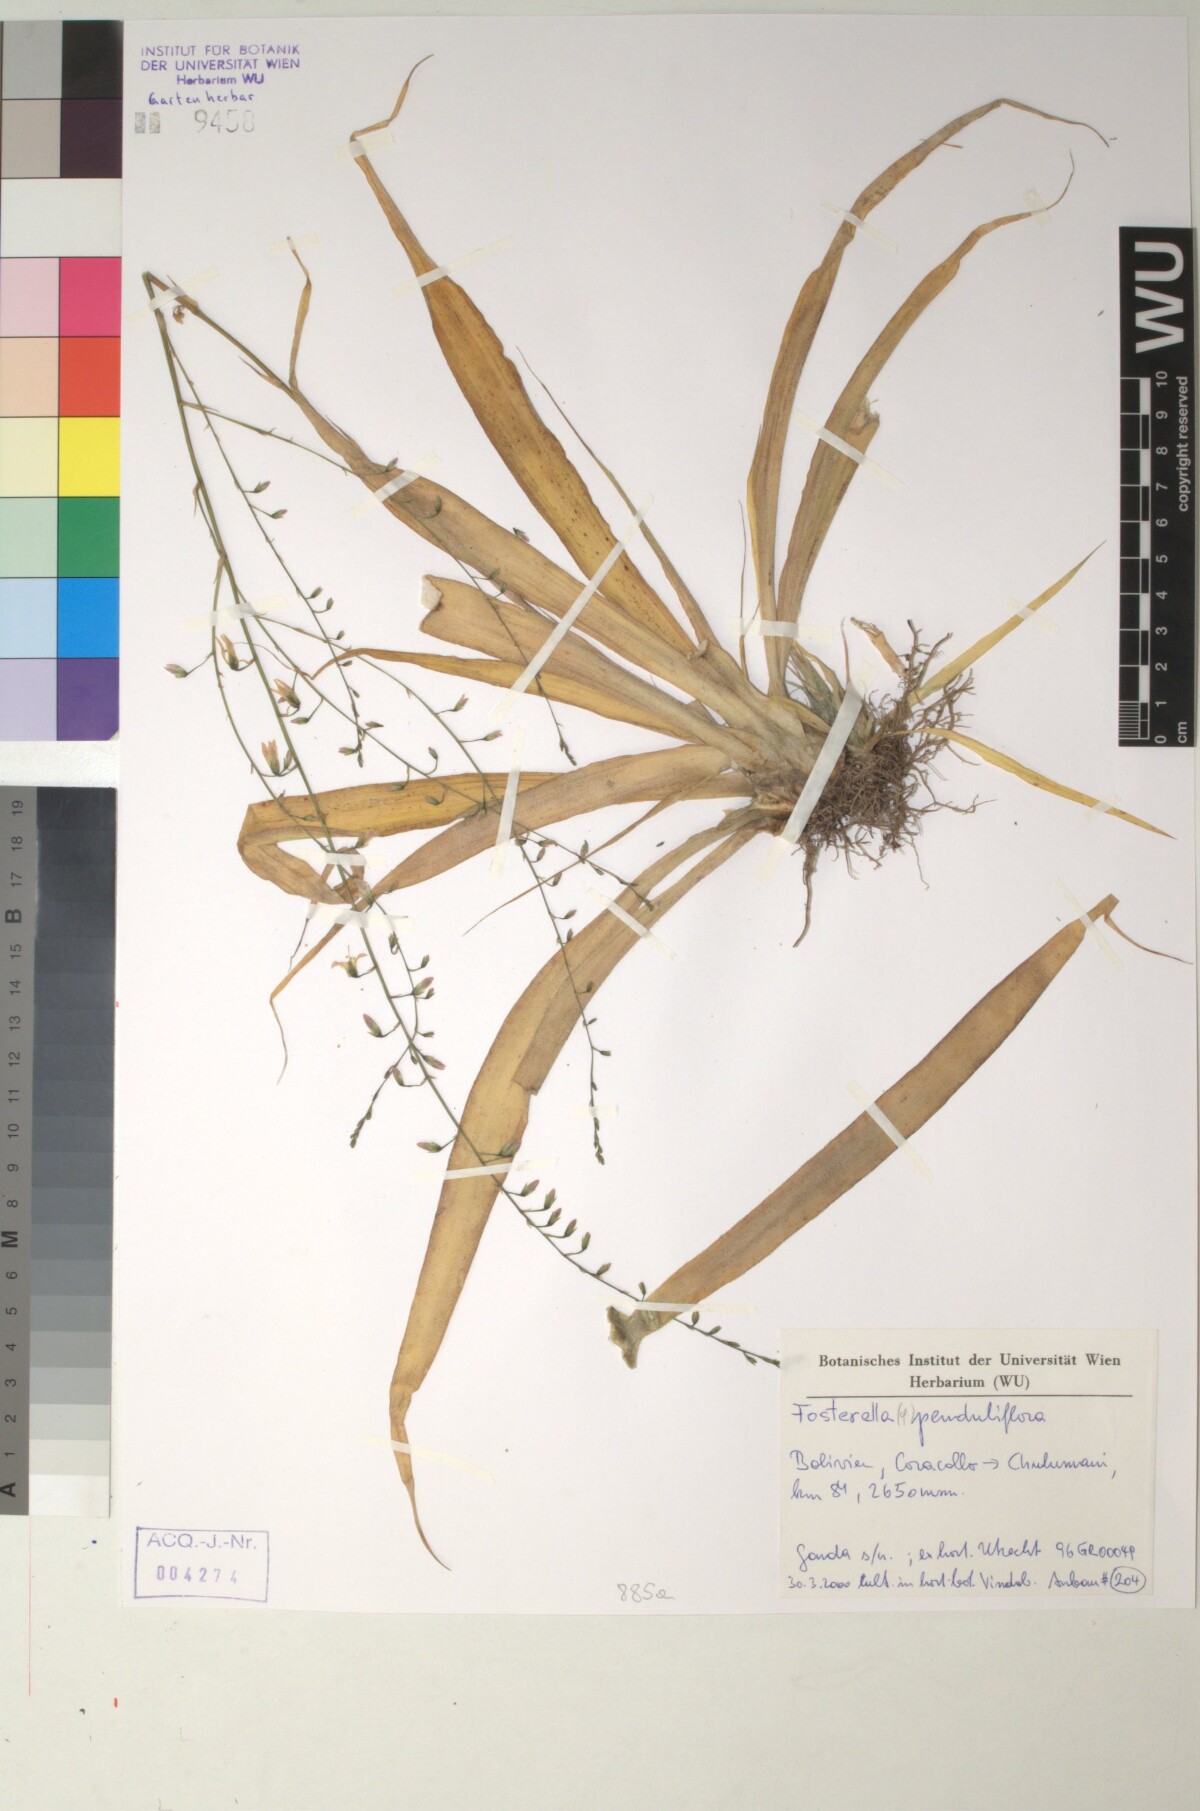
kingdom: Plantae
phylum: Tracheophyta
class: Liliopsida
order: Poales
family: Bromeliaceae
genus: Fosterella
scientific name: Fosterella penduliflora
